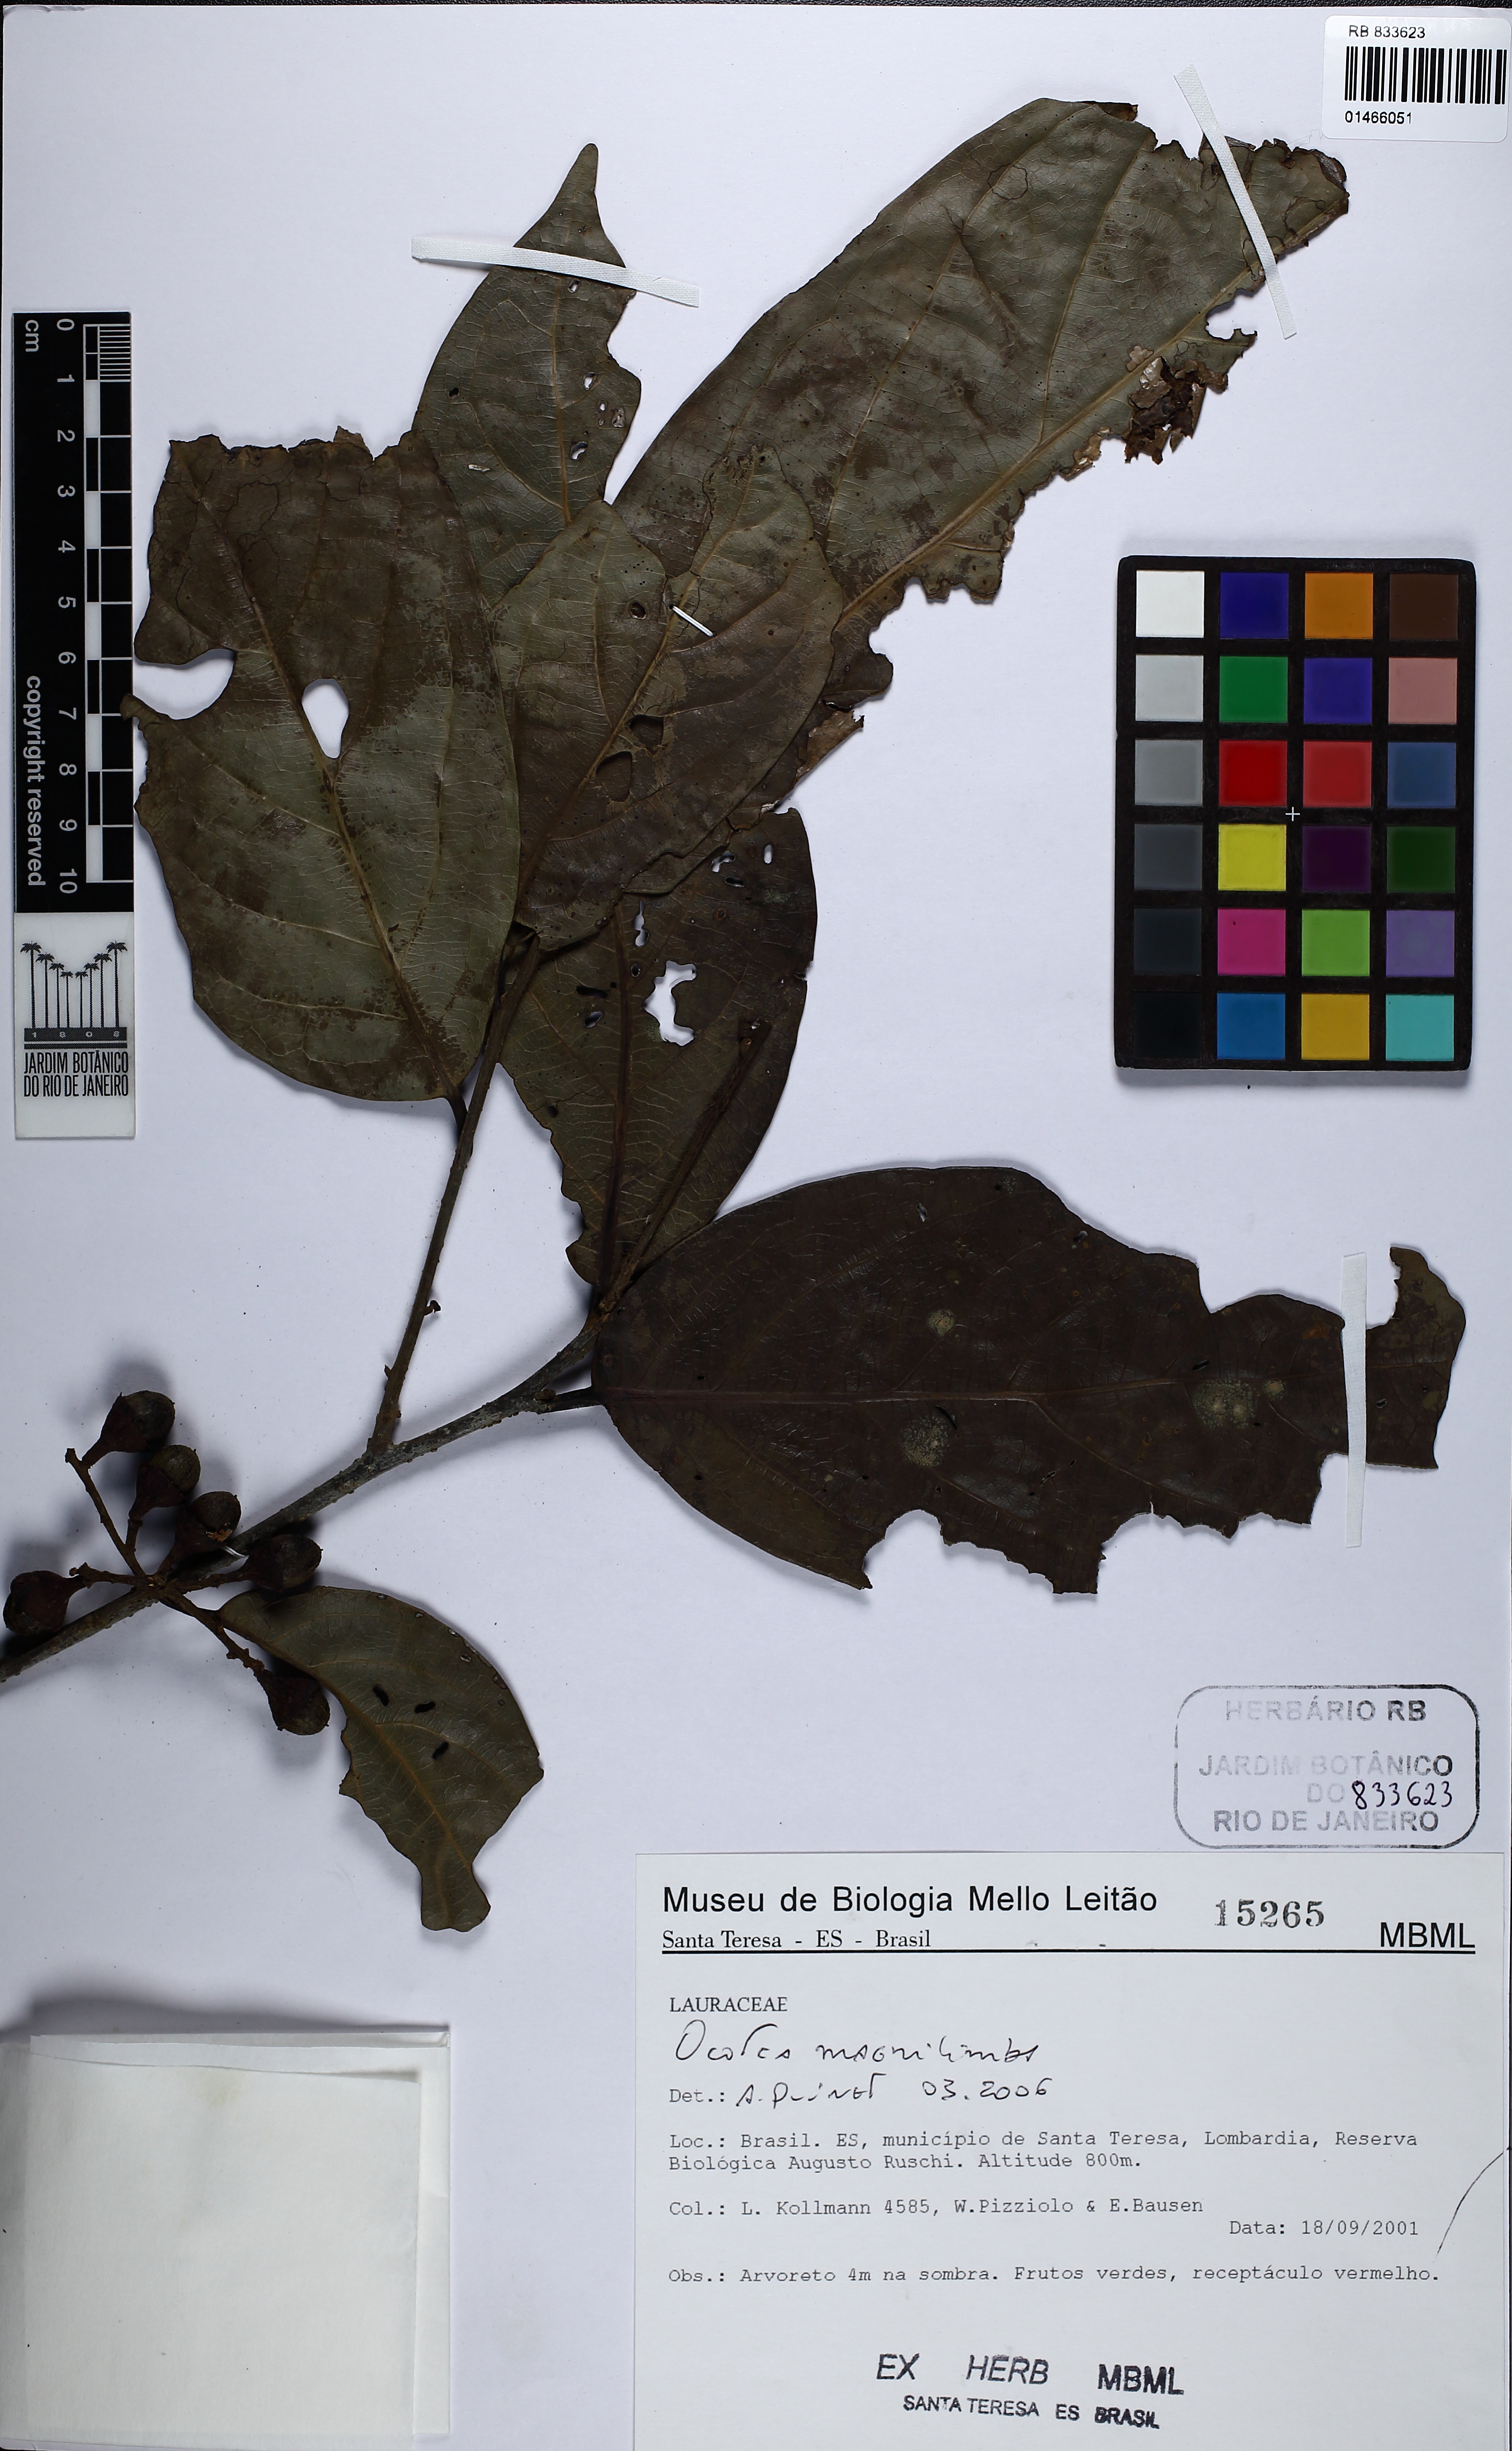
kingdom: Plantae
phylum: Tracheophyta
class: Magnoliopsida
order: Laurales
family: Lauraceae
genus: Ocotea
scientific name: Ocotea magnilimba
